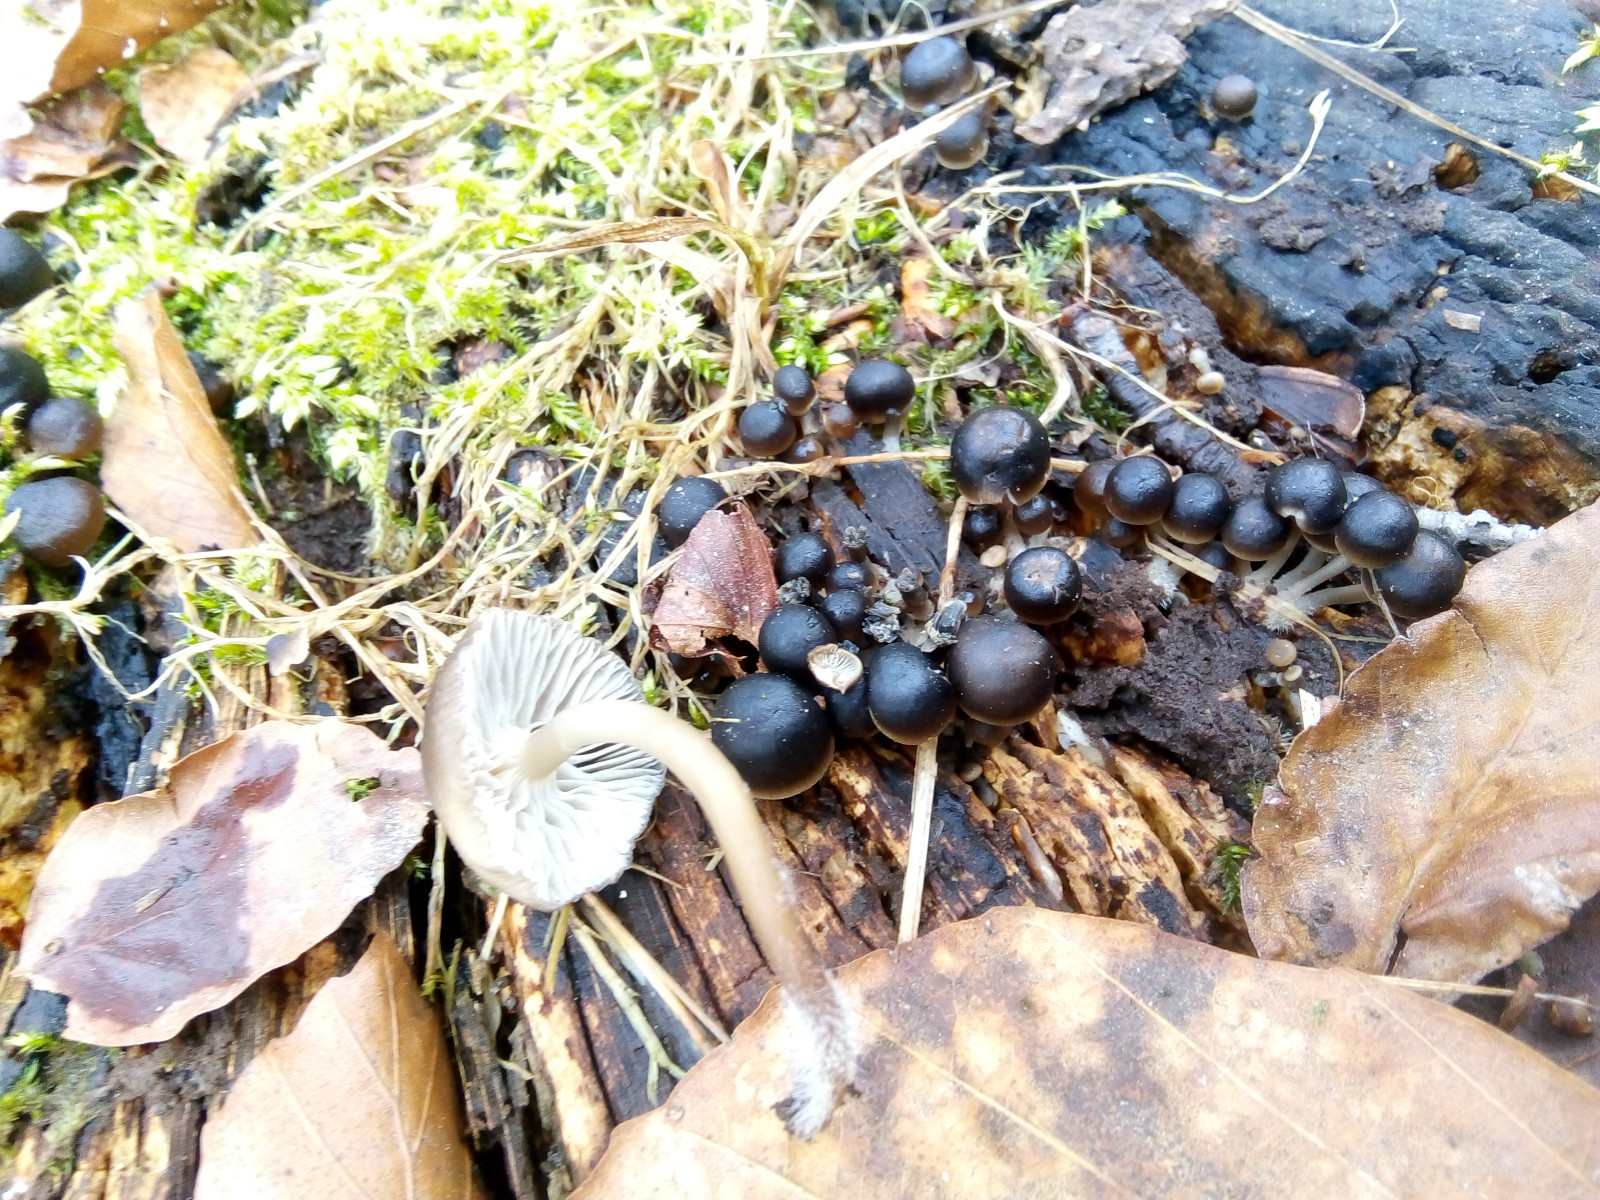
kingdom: Fungi
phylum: Basidiomycota
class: Agaricomycetes
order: Agaricales
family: Mycenaceae
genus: Mycena
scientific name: Mycena tintinnabulum
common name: vinter-huesvamp
